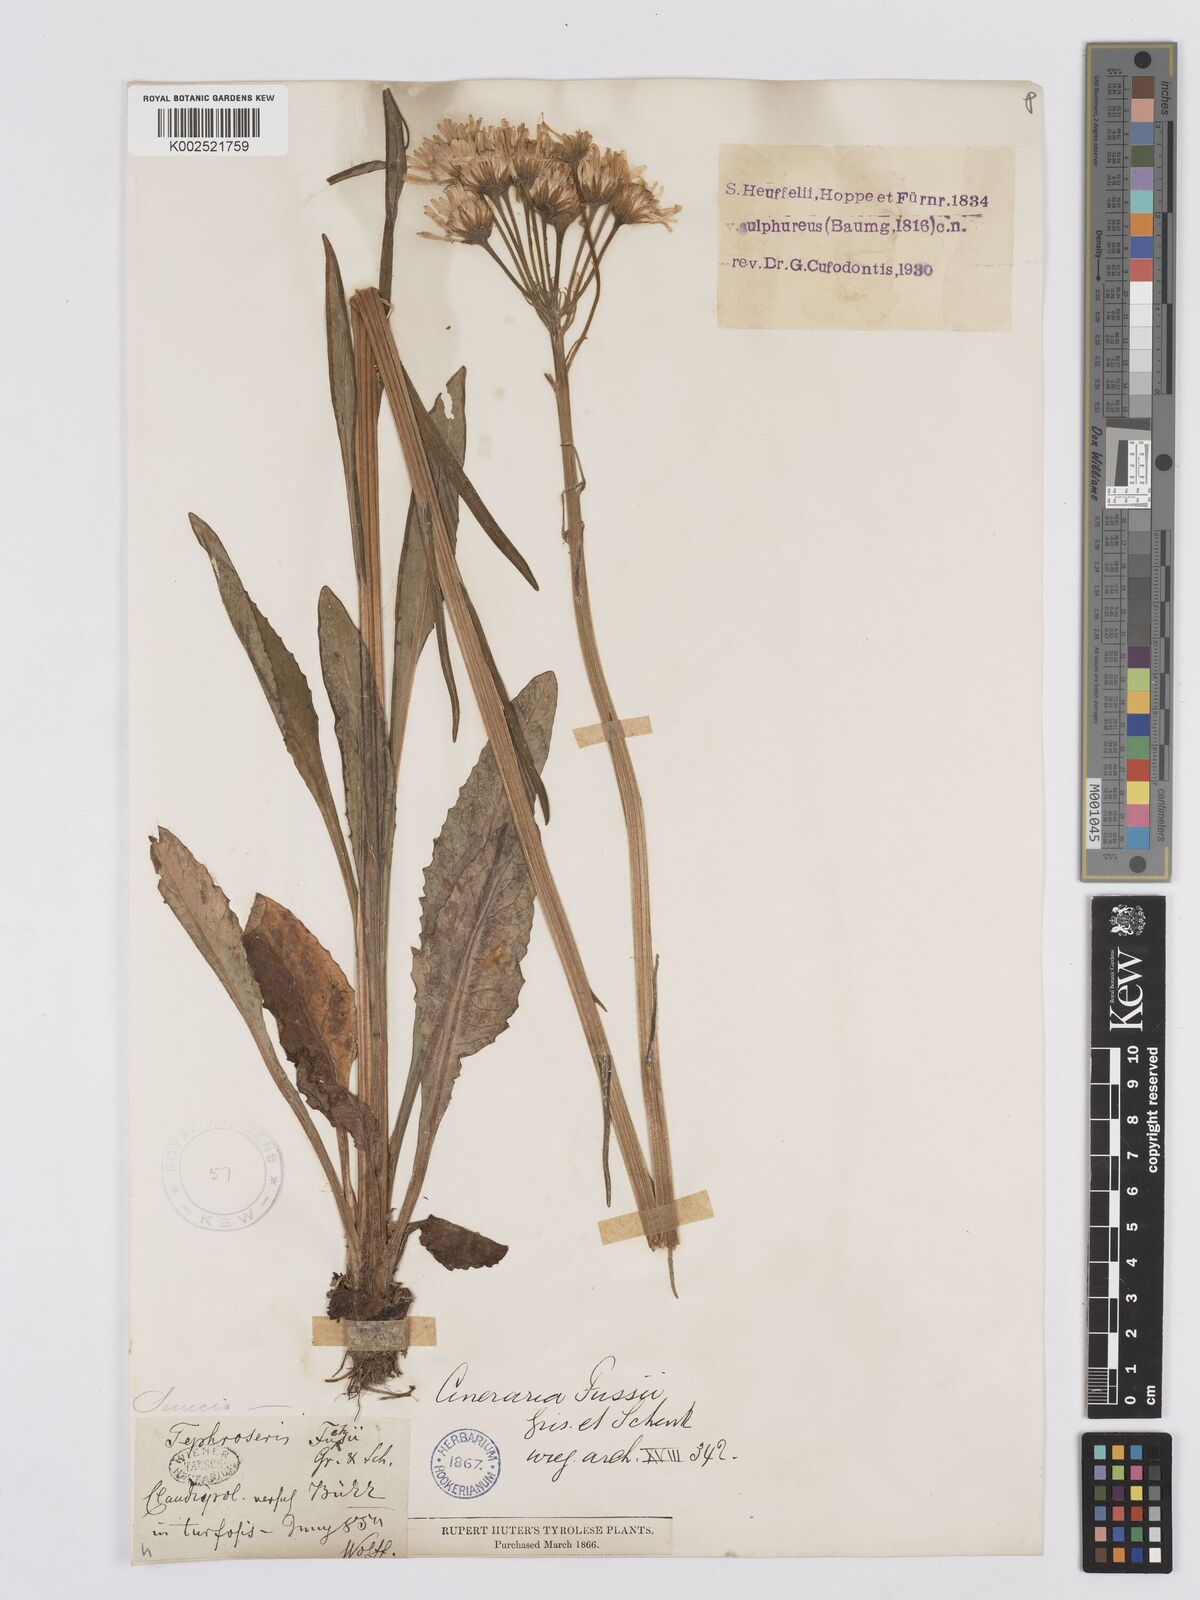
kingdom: Plantae
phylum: Tracheophyta
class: Magnoliopsida
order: Asterales
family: Asteraceae
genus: Tephroseris
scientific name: Tephroseris papposa
